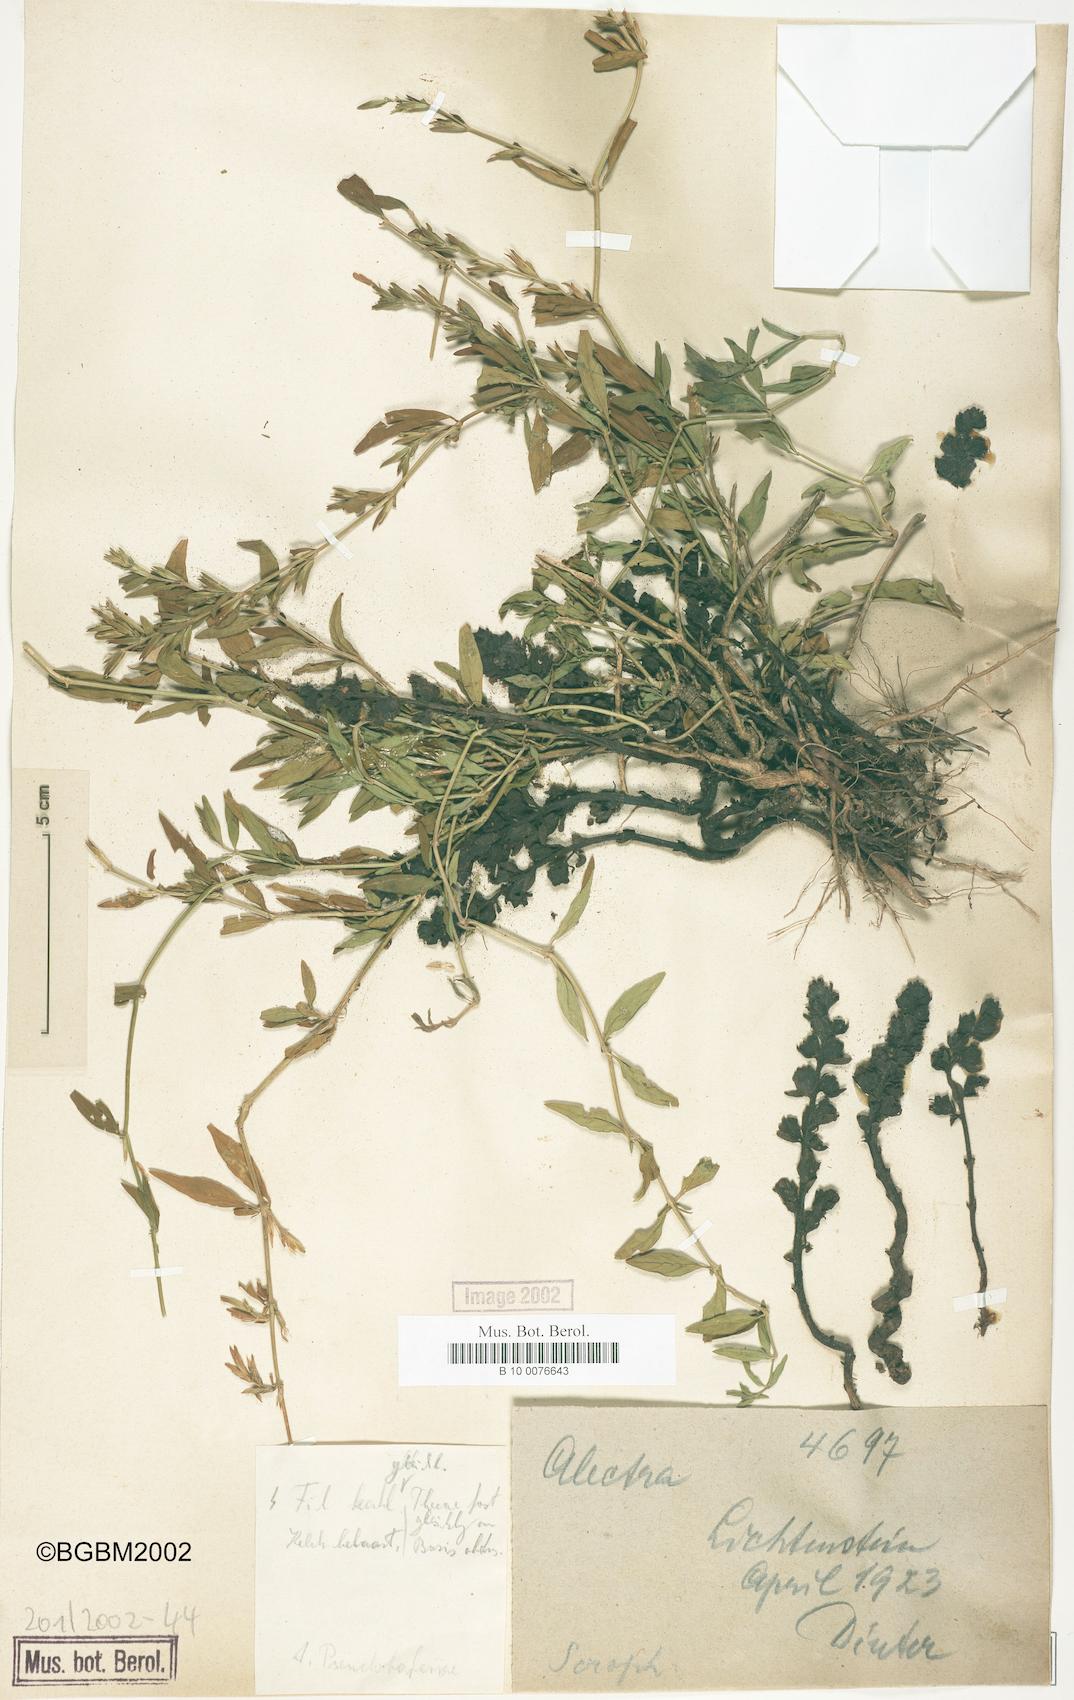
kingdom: Plantae
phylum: Tracheophyta
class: Magnoliopsida
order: Lamiales
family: Orobanchaceae
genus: Alectra
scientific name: Alectra pseudobarleriae
